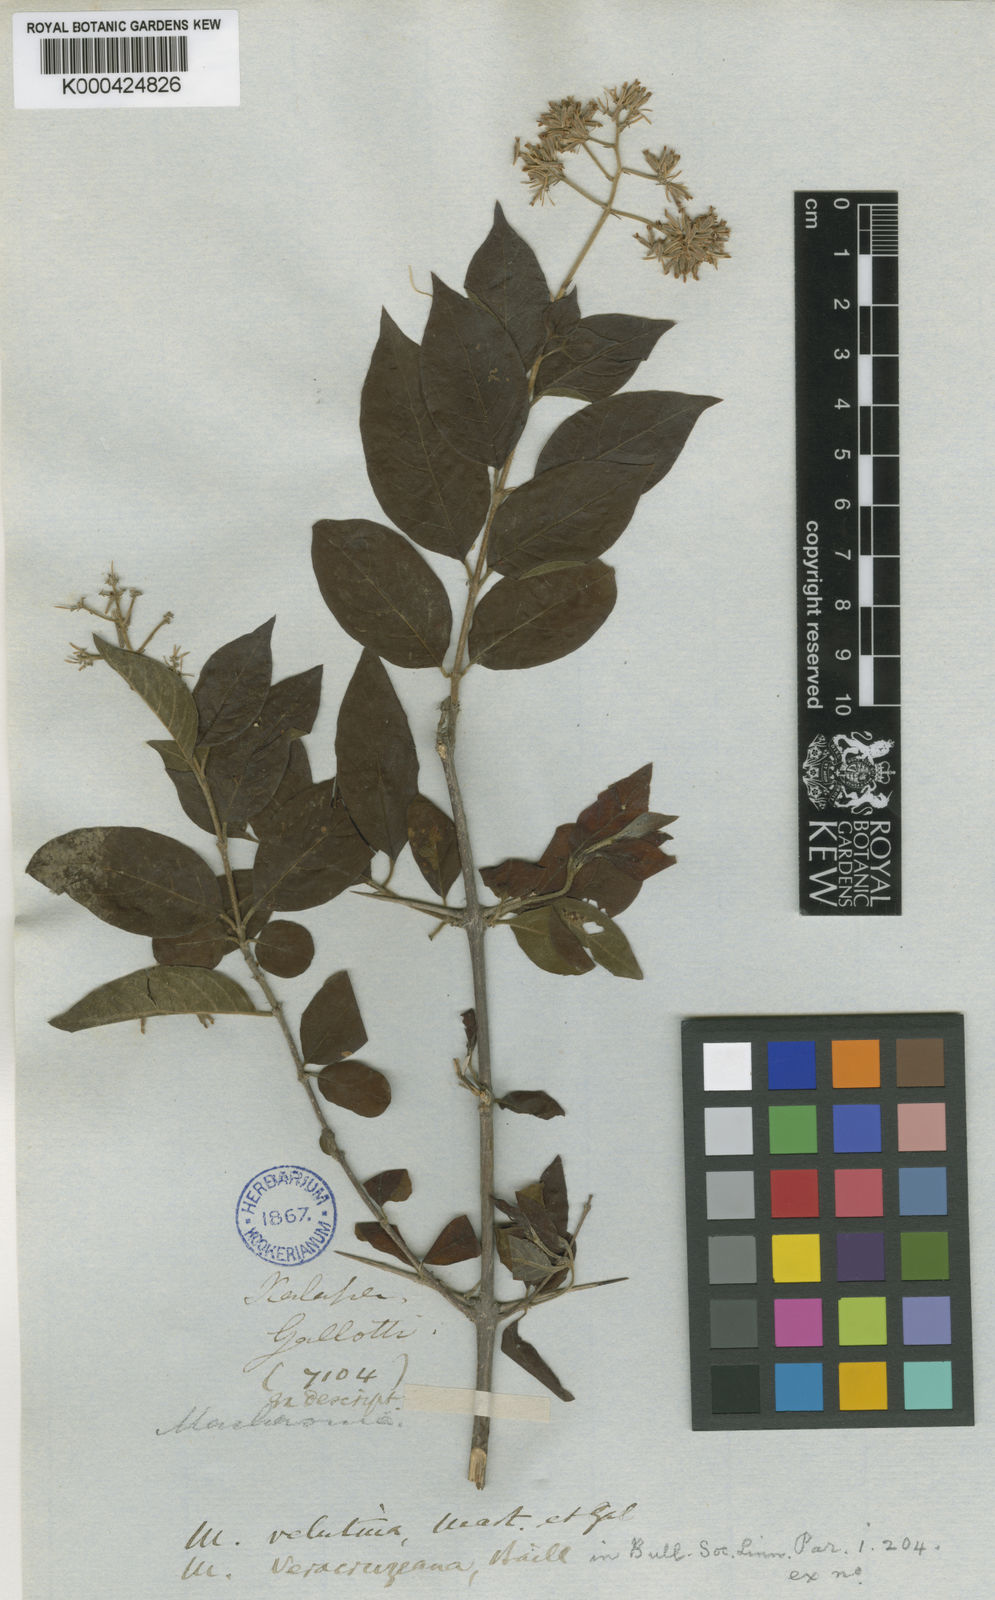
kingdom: Plantae
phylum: Tracheophyta
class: Magnoliopsida
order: Gentianales
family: Rubiaceae
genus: Machaonia
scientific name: Machaonia acuminata
